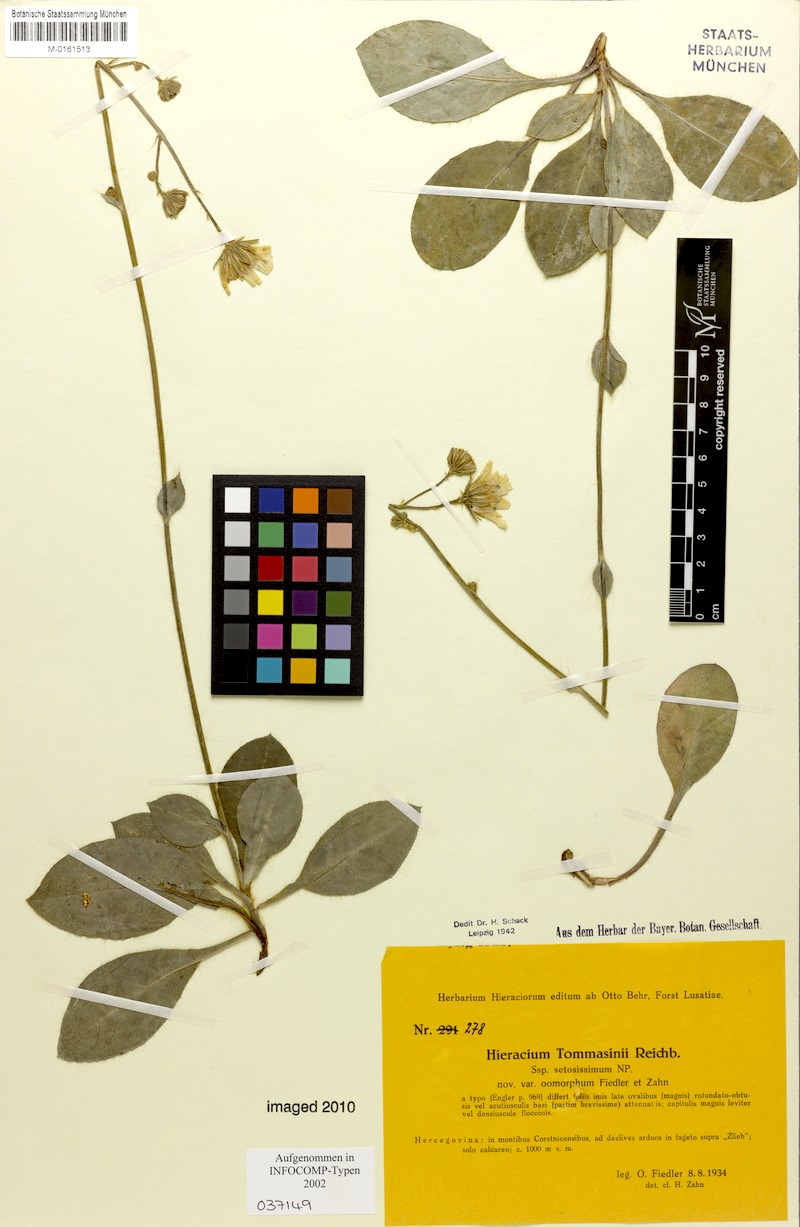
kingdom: Plantae
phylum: Tracheophyta
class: Magnoliopsida
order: Asterales
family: Asteraceae
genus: Hieracium
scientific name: Hieracium tommasinianum
